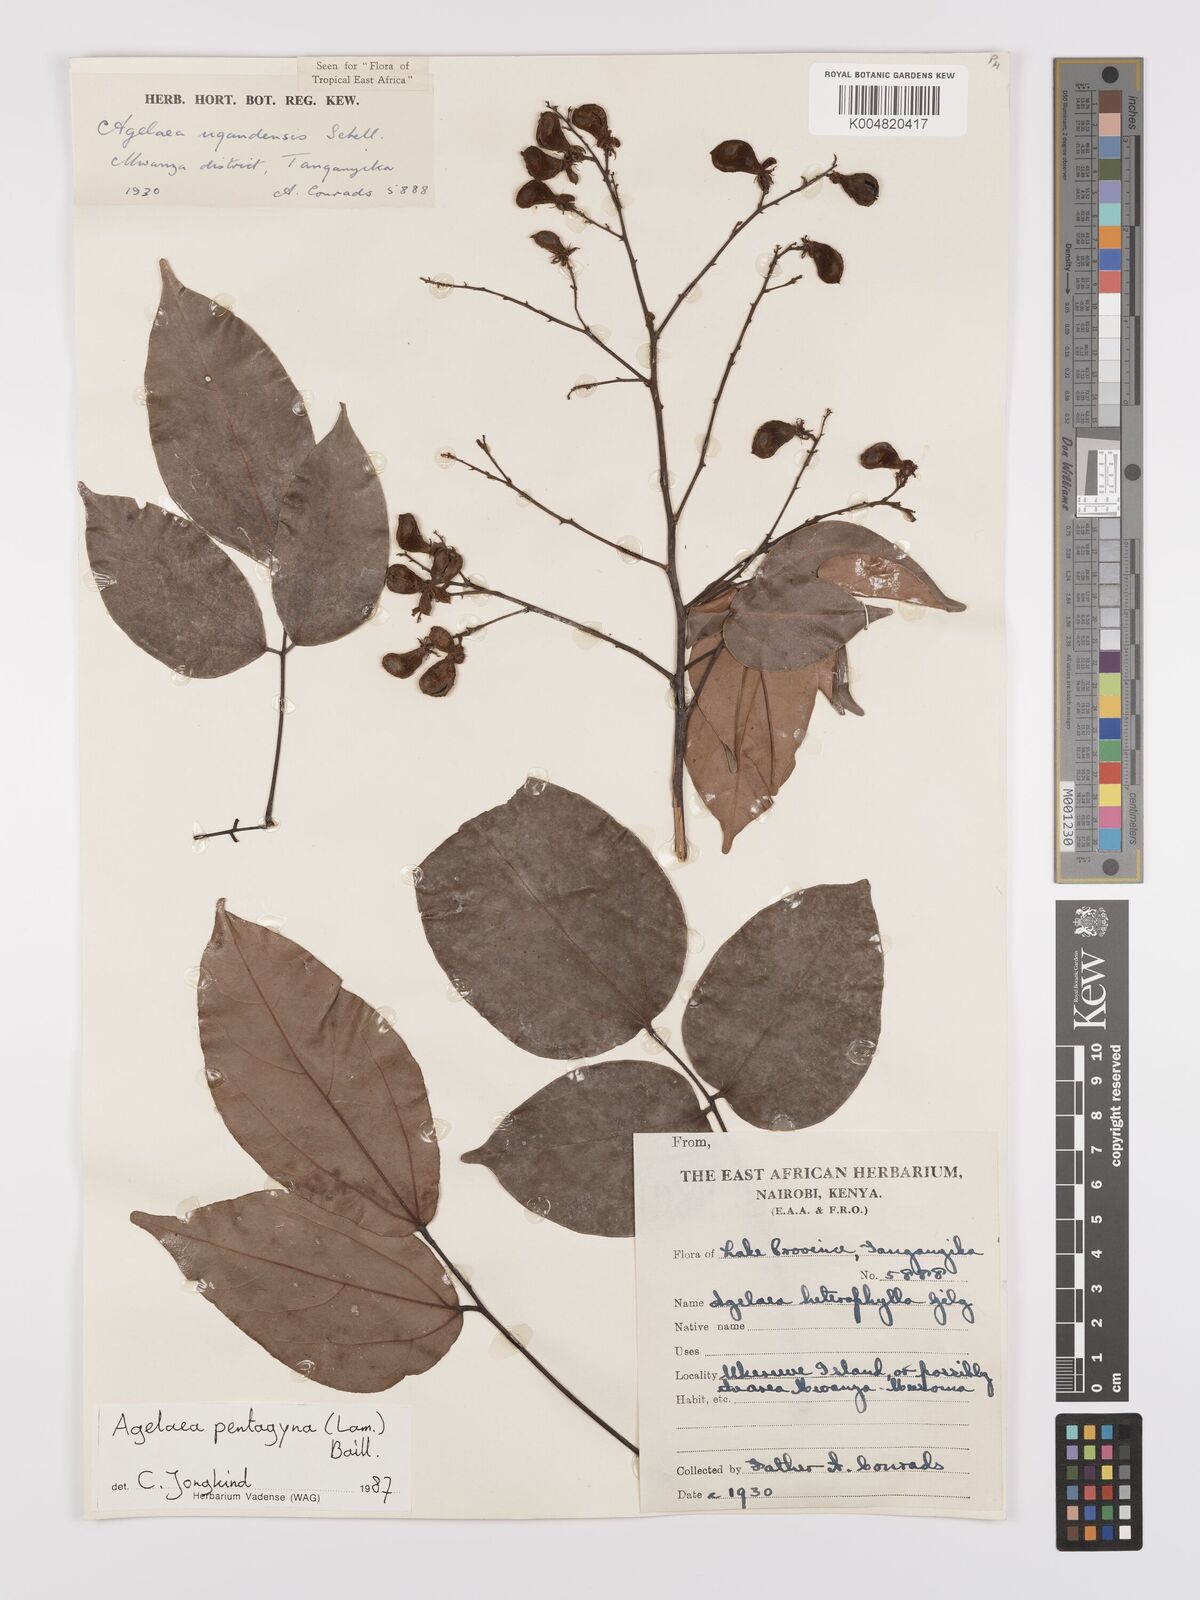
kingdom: Plantae
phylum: Tracheophyta
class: Magnoliopsida
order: Oxalidales
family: Connaraceae
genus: Agelaea
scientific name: Agelaea pentagyna
